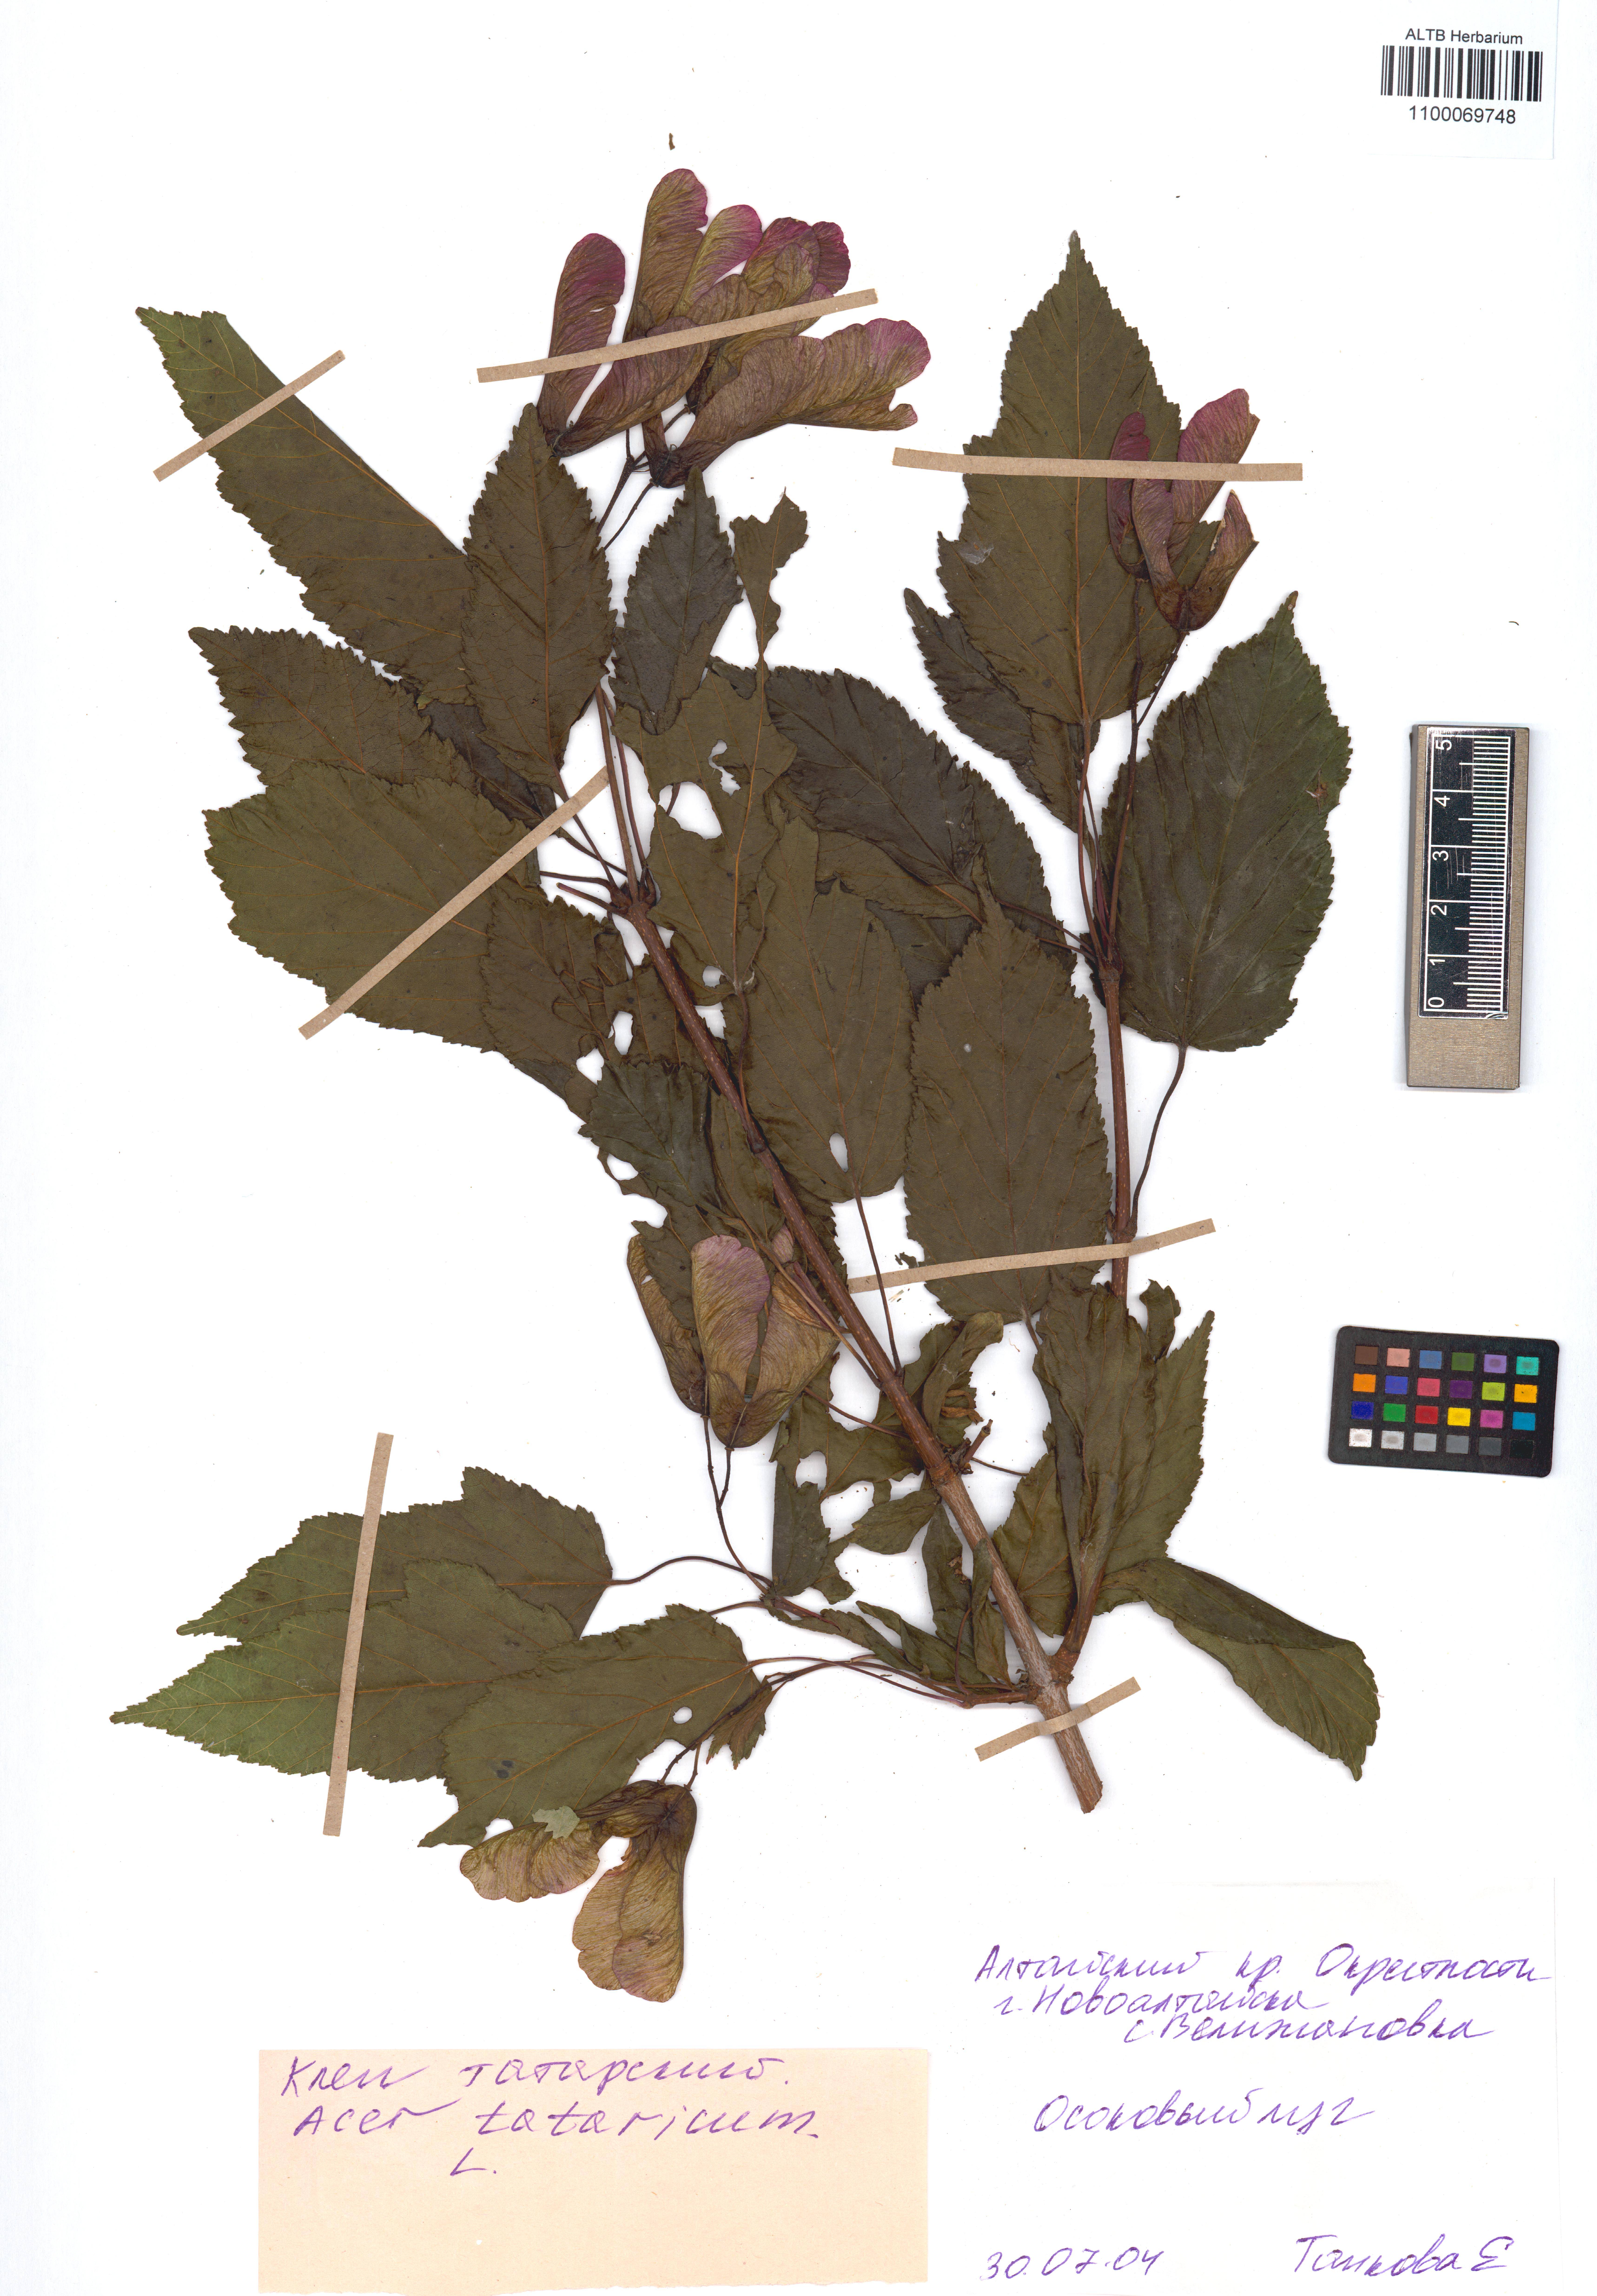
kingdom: Plantae
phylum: Tracheophyta
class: Magnoliopsida
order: Sapindales
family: Sapindaceae
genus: Acer
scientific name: Acer tataricum
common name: Tartar maple
